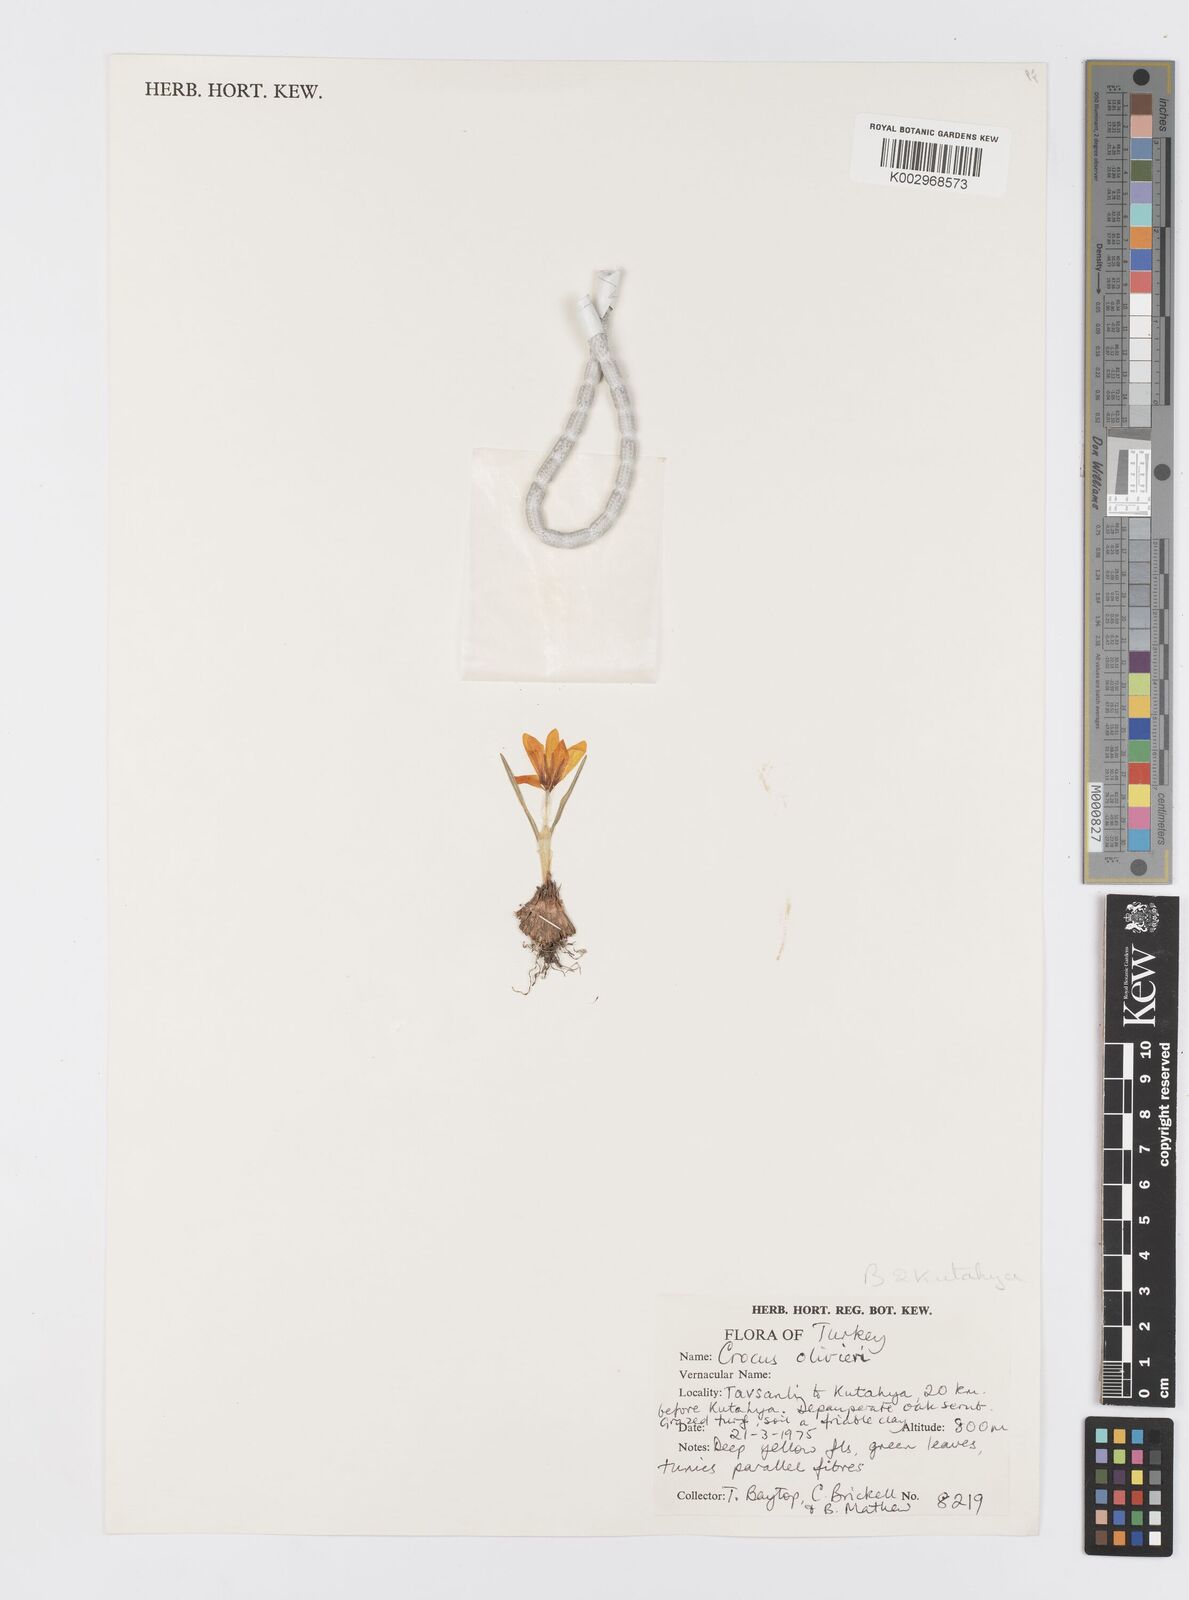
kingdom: Plantae
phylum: Tracheophyta
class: Liliopsida
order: Asparagales
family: Iridaceae
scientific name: Iridaceae
